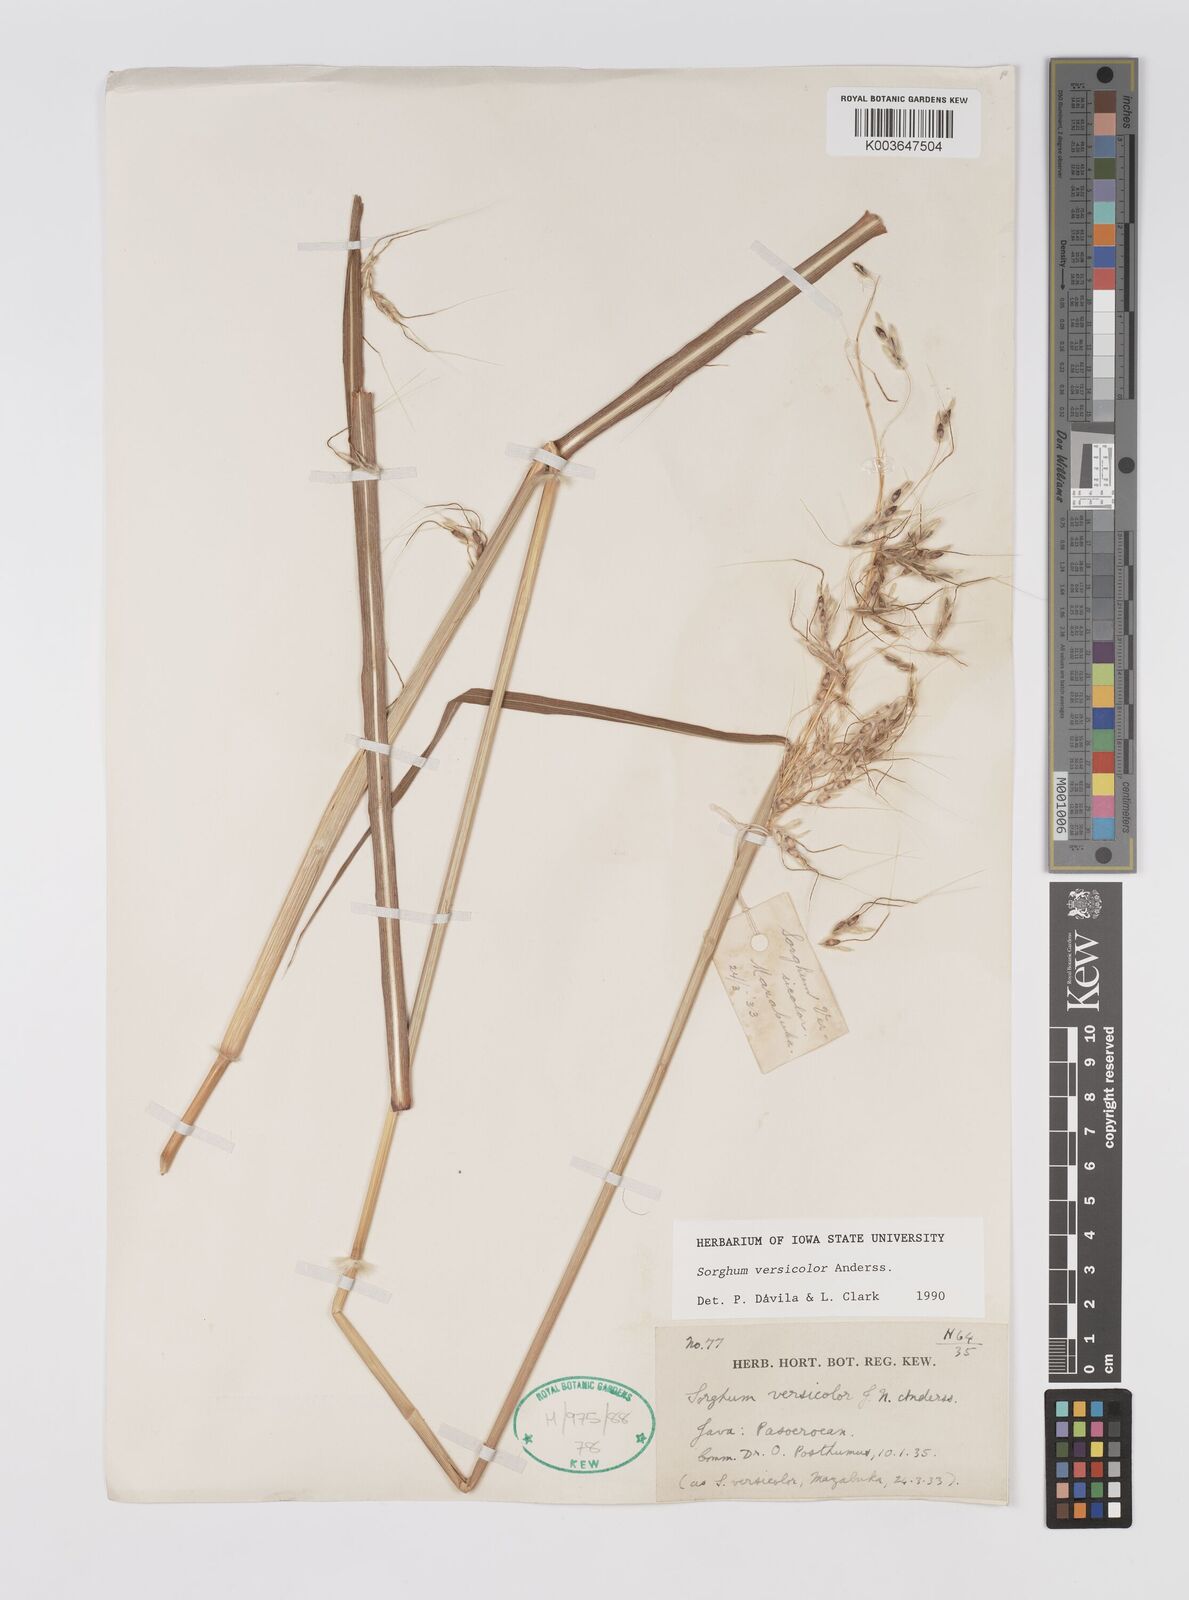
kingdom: Plantae
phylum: Tracheophyta
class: Liliopsida
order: Poales
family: Poaceae
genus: Sarga
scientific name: Sarga versicolor
